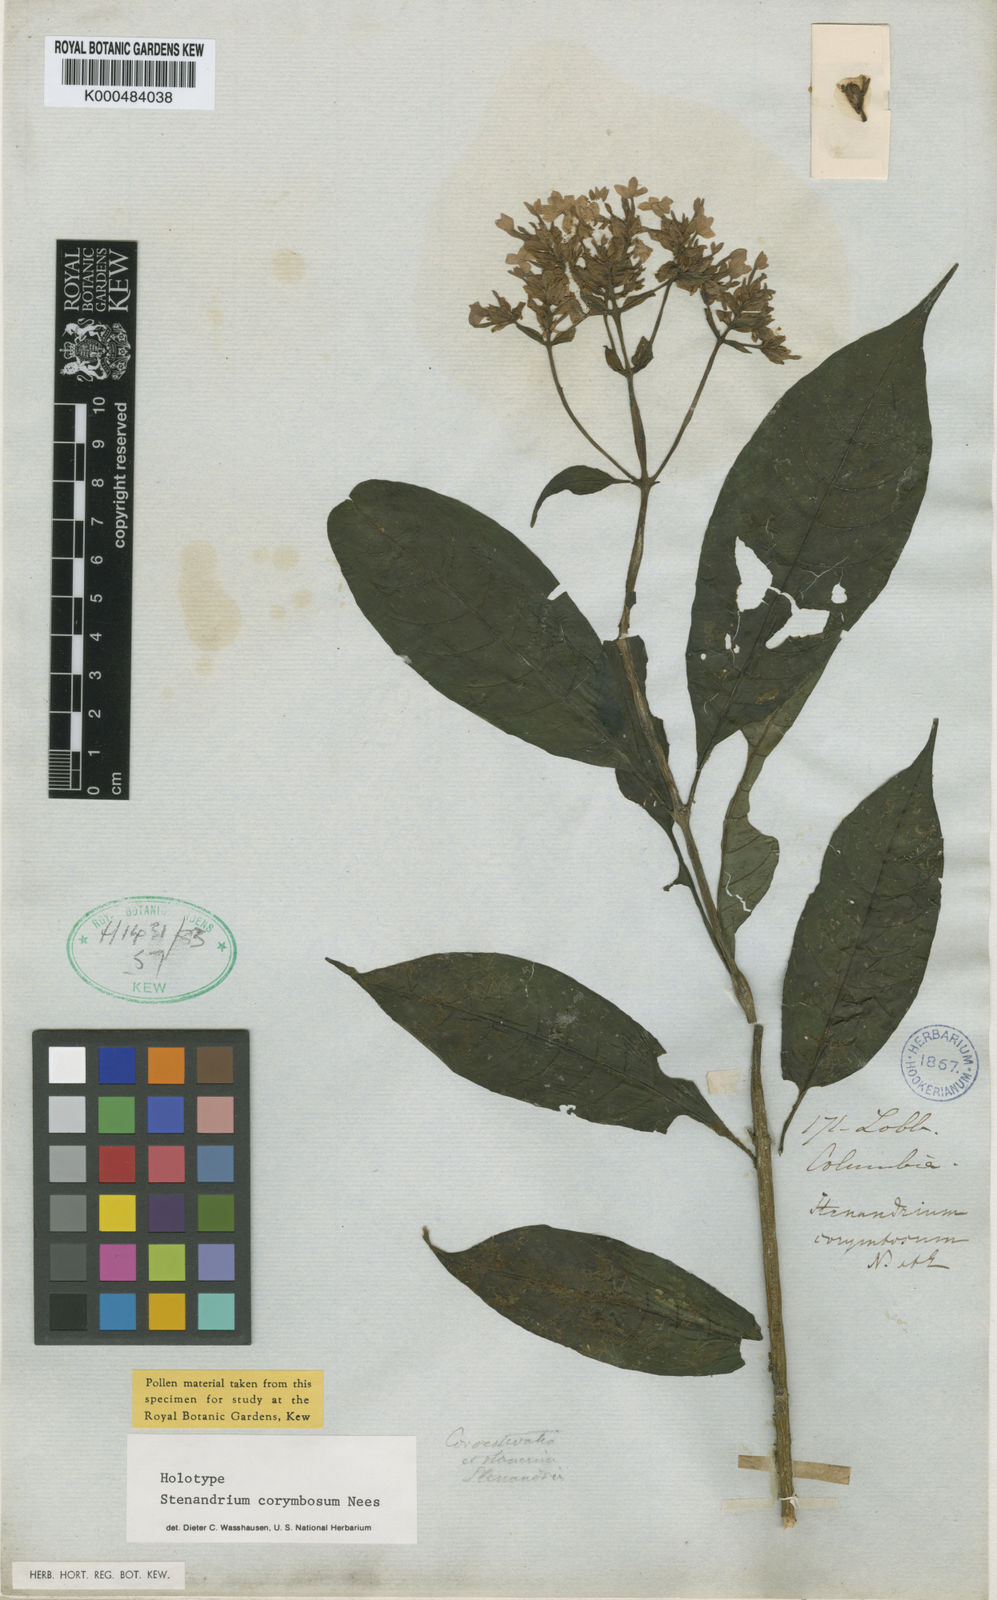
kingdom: Plantae
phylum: Tracheophyta
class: Magnoliopsida
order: Lamiales
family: Acanthaceae
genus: Stenandrium
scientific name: Stenandrium corymbosum
